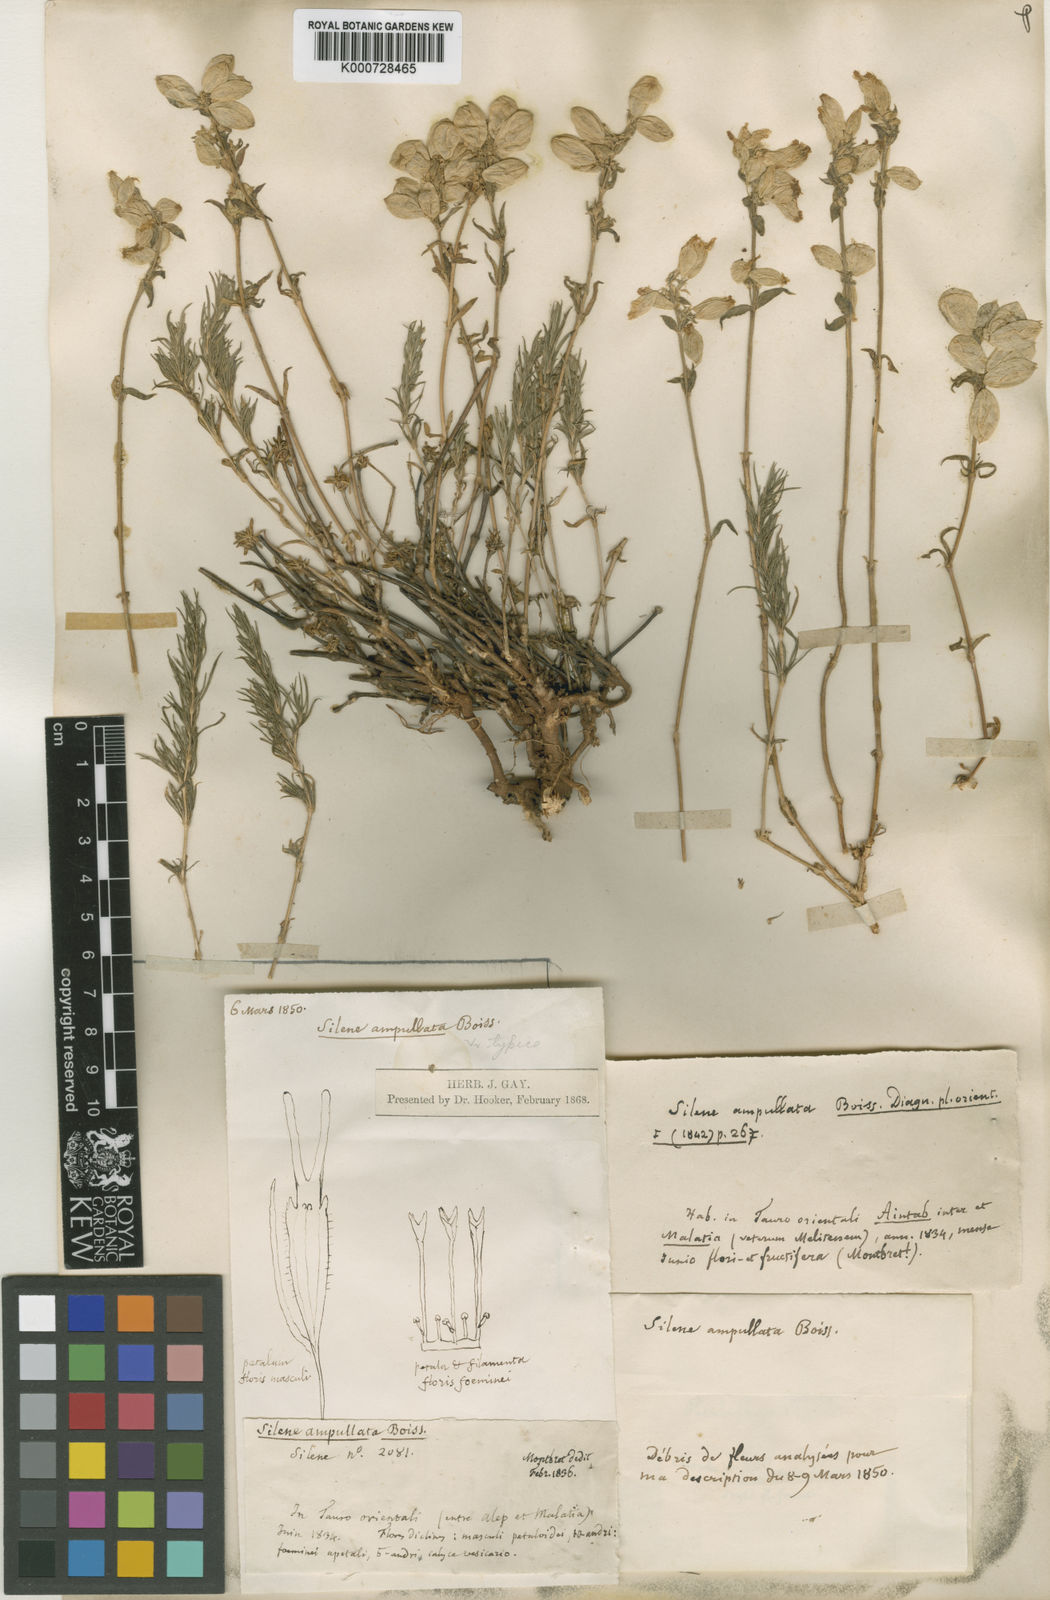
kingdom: Plantae
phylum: Tracheophyta
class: Magnoliopsida
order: Caryophyllales
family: Caryophyllaceae
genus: Silene
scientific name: Silene ampullata
